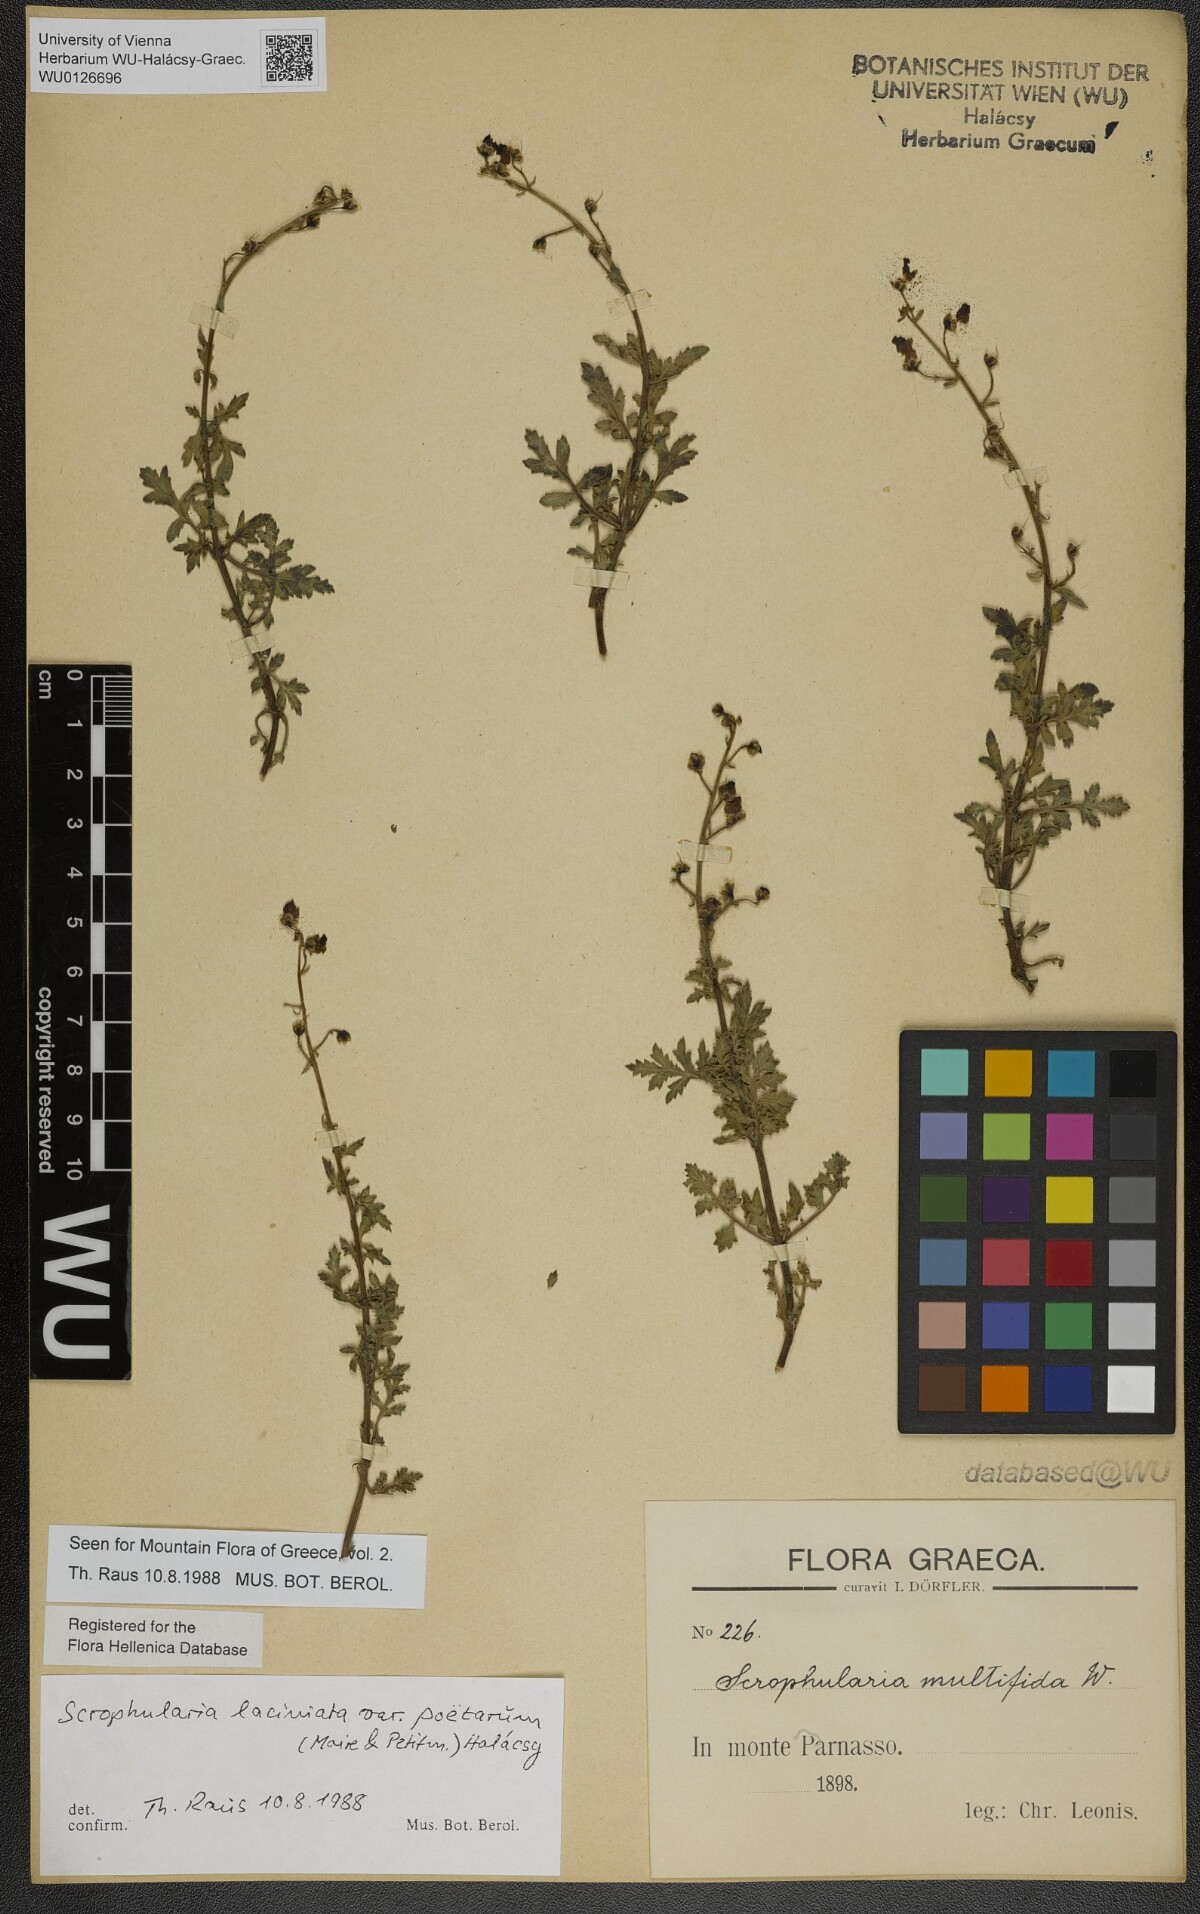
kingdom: Plantae
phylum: Tracheophyta
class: Magnoliopsida
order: Lamiales
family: Scrophulariaceae
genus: Scrophularia
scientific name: Scrophularia laciniata
